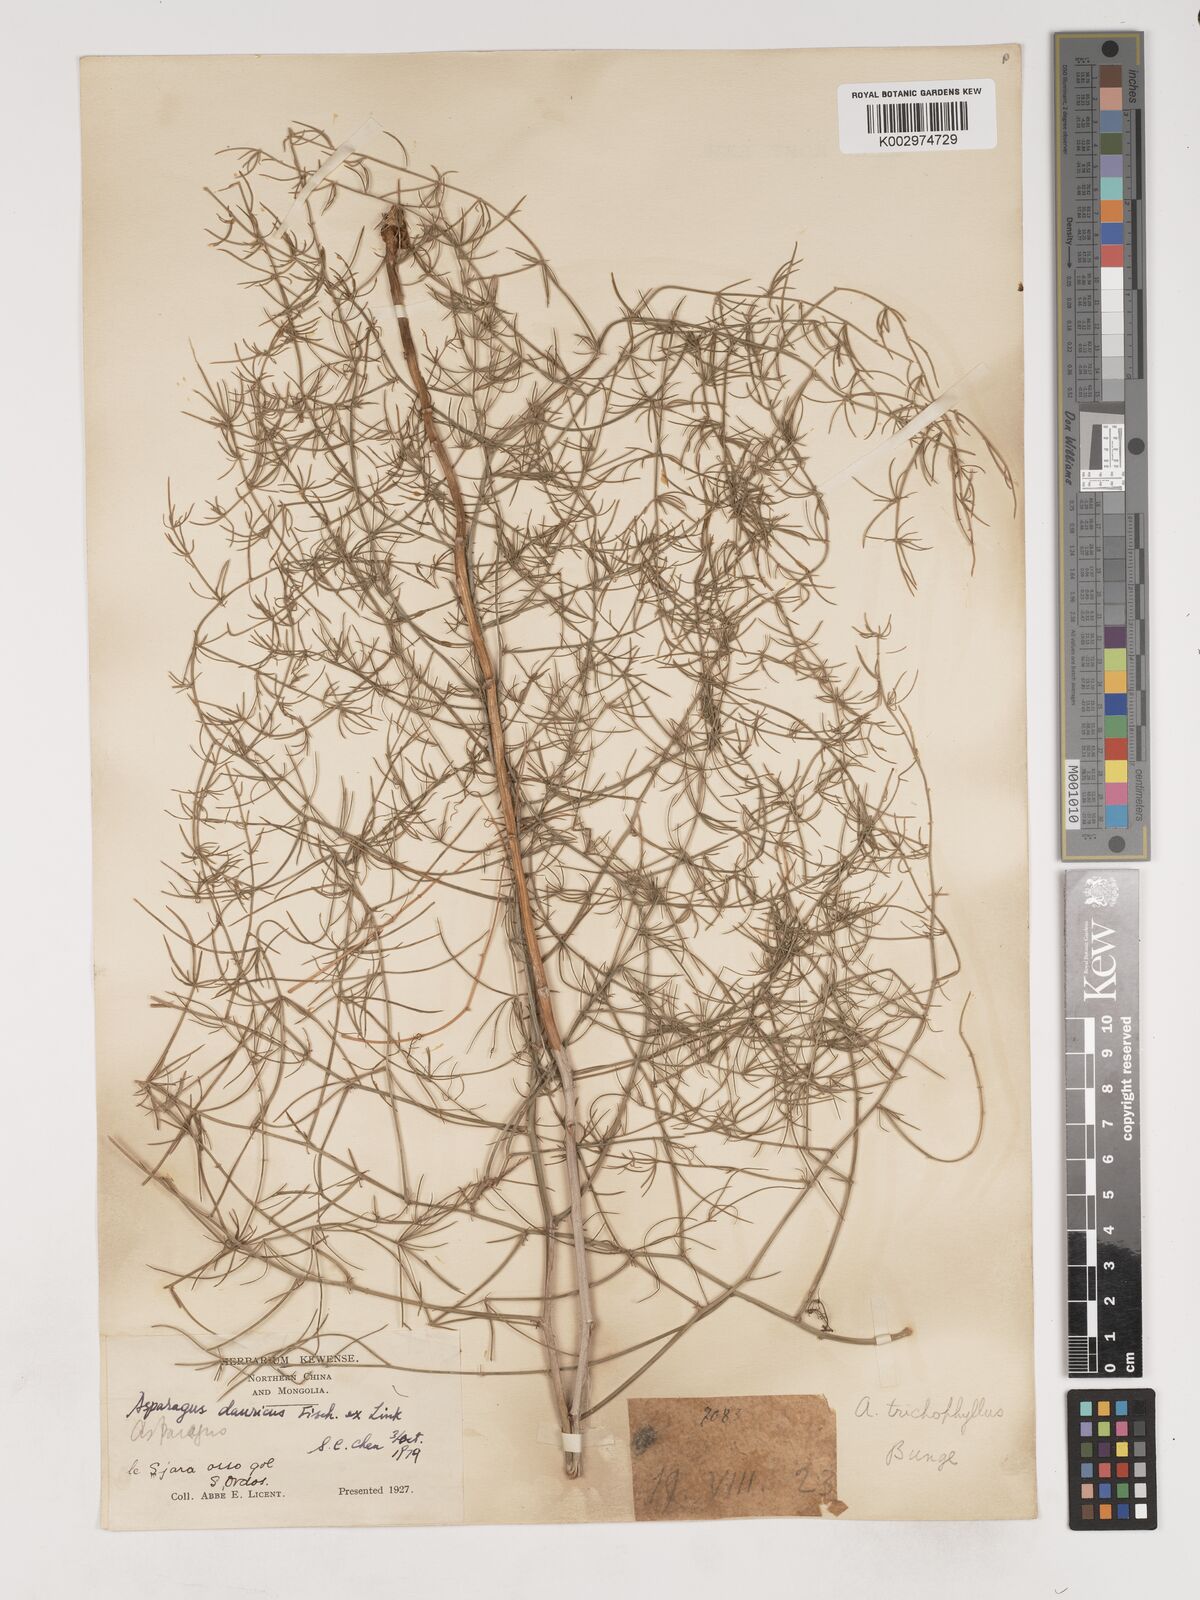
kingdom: Plantae
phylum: Tracheophyta
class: Liliopsida
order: Asparagales
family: Asparagaceae
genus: Asparagus
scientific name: Asparagus dauricus
